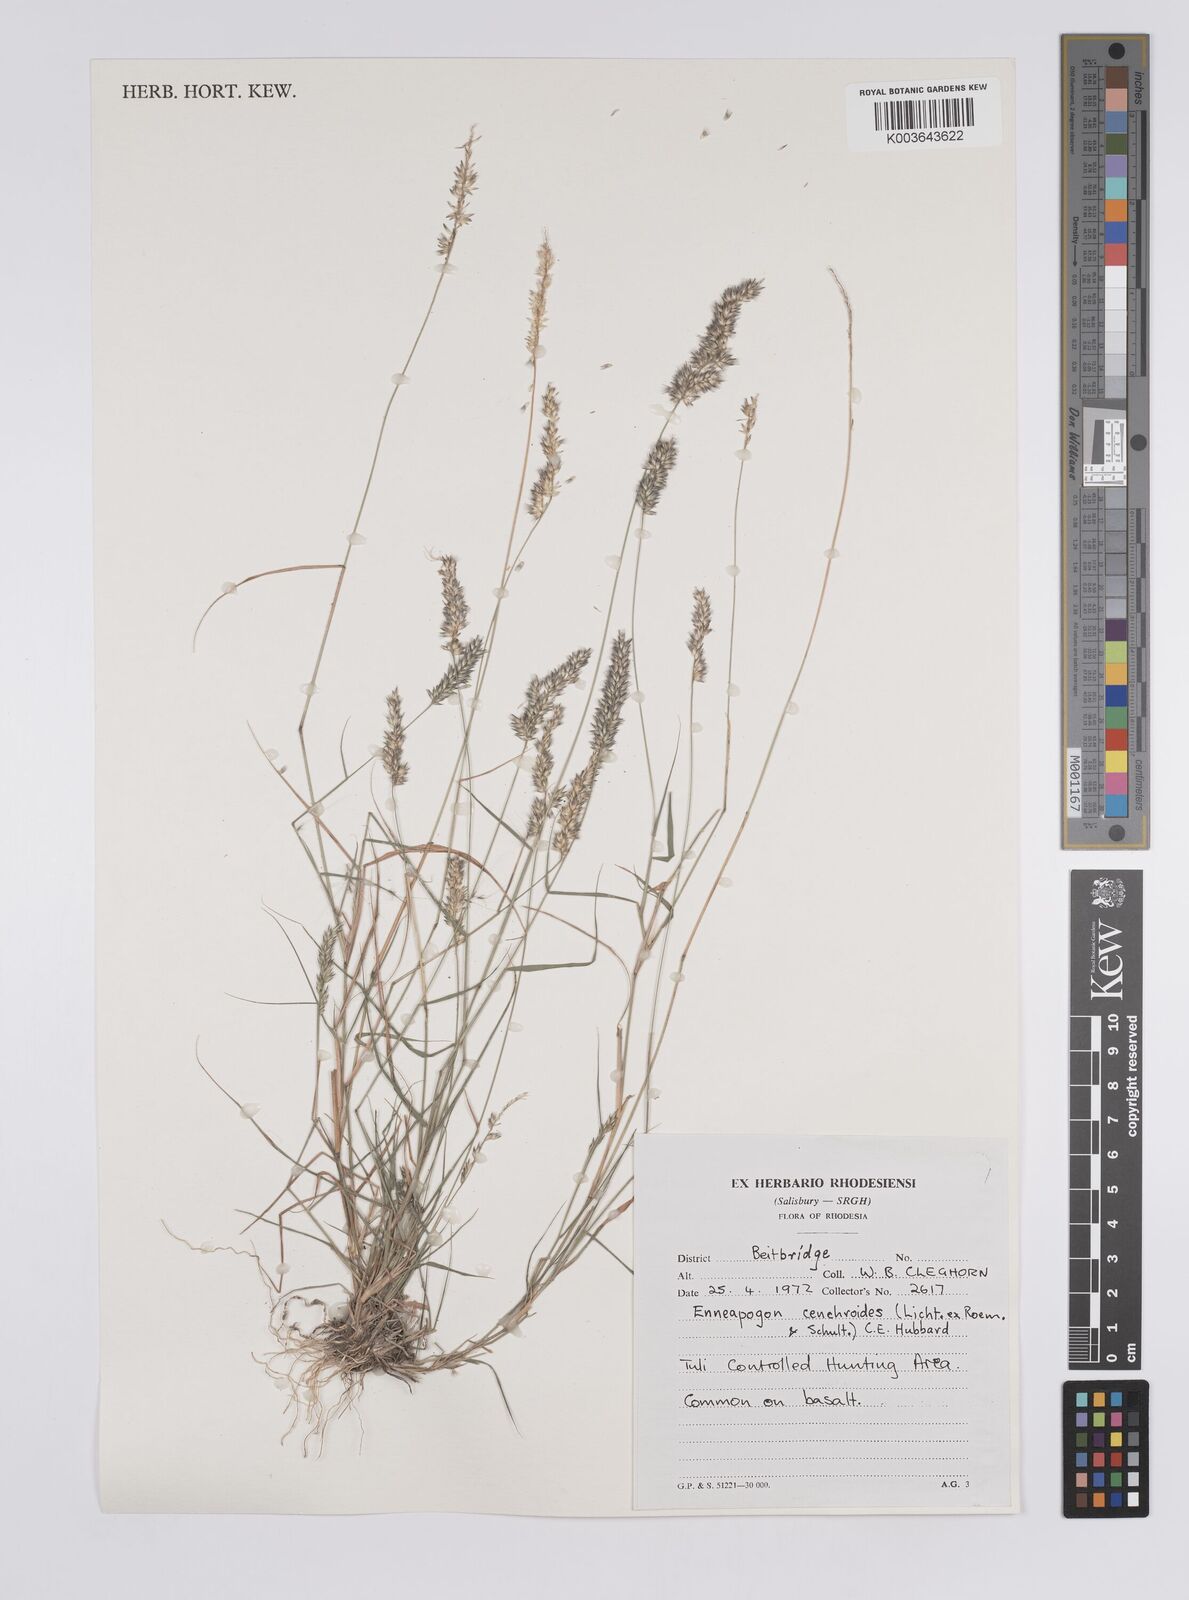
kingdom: Plantae
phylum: Tracheophyta
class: Liliopsida
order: Poales
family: Poaceae
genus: Enneapogon
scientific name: Enneapogon cenchroides
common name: Soft feather pappusgrass
